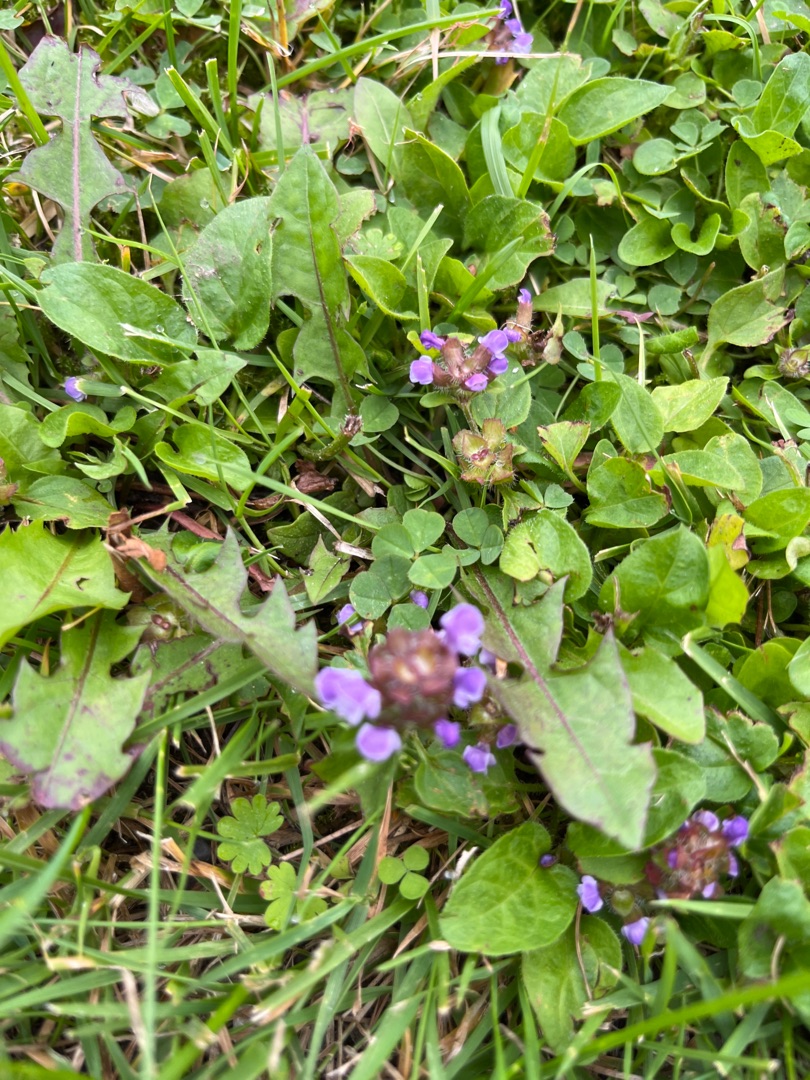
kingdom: Plantae
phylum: Tracheophyta
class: Magnoliopsida
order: Lamiales
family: Lamiaceae
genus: Prunella
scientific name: Prunella vulgaris
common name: Almindelig brunelle
